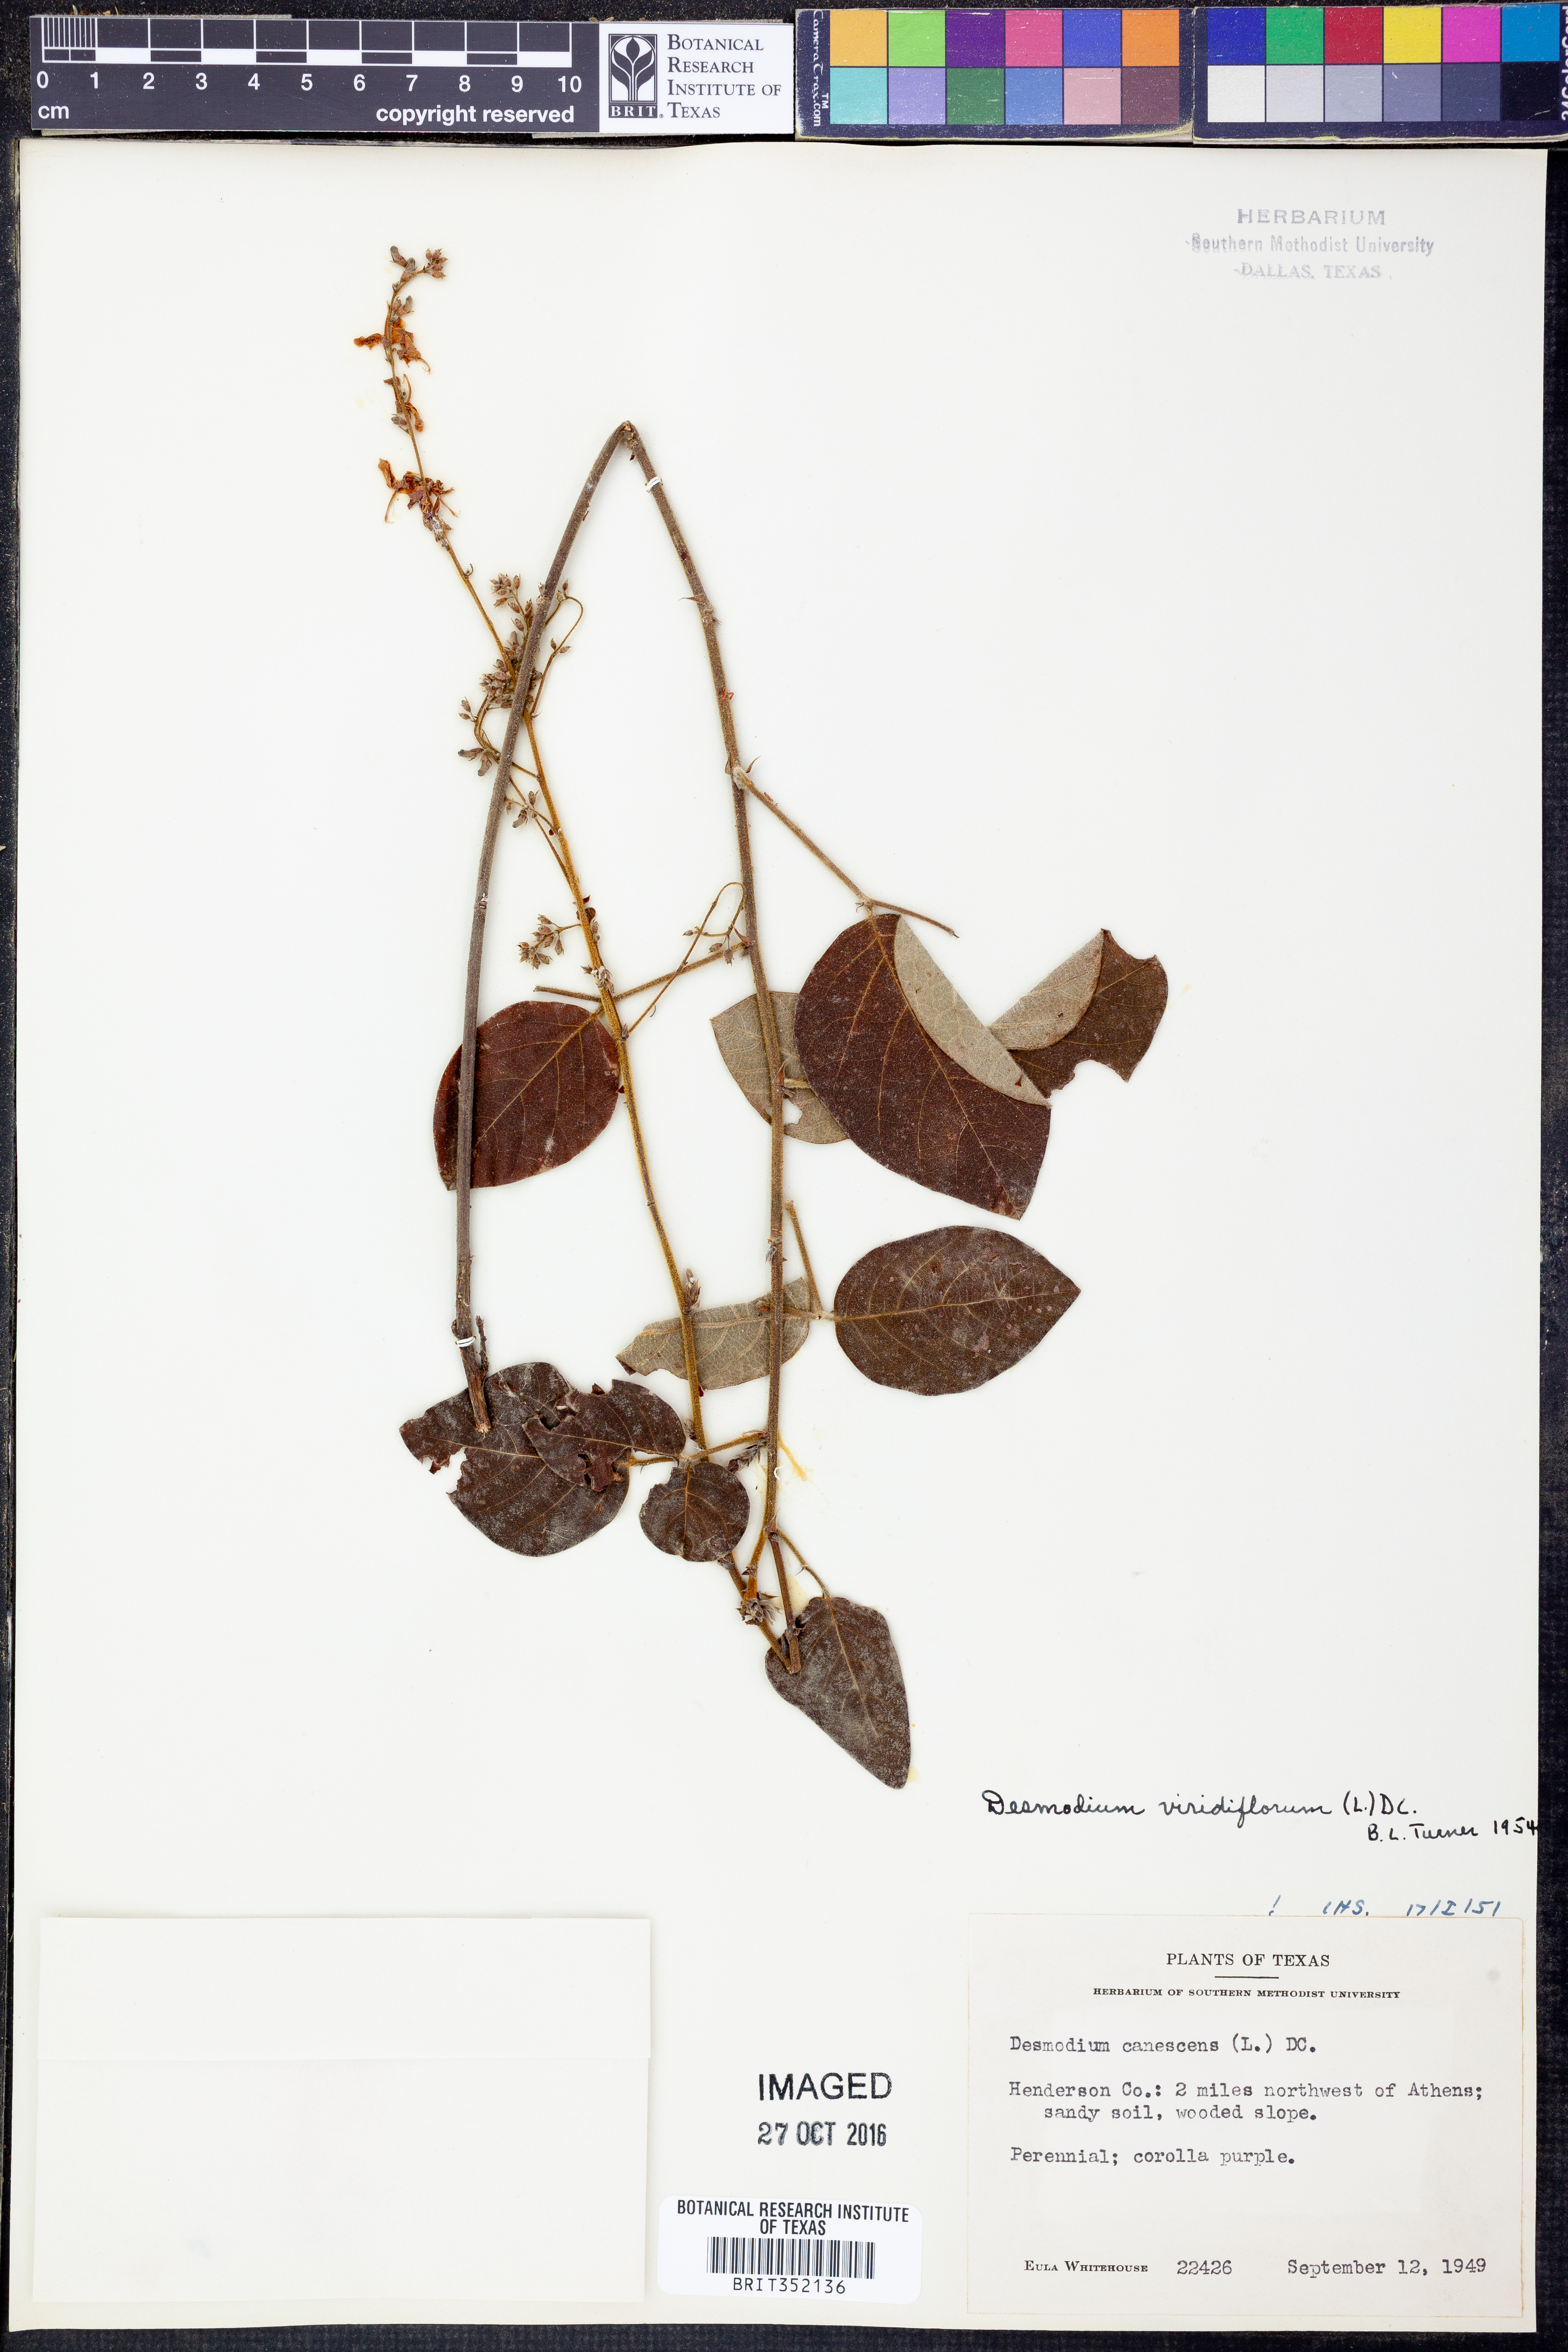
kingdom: Plantae
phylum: Tracheophyta
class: Magnoliopsida
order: Fabales
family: Fabaceae
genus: Desmodium
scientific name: Desmodium viridiflorum
